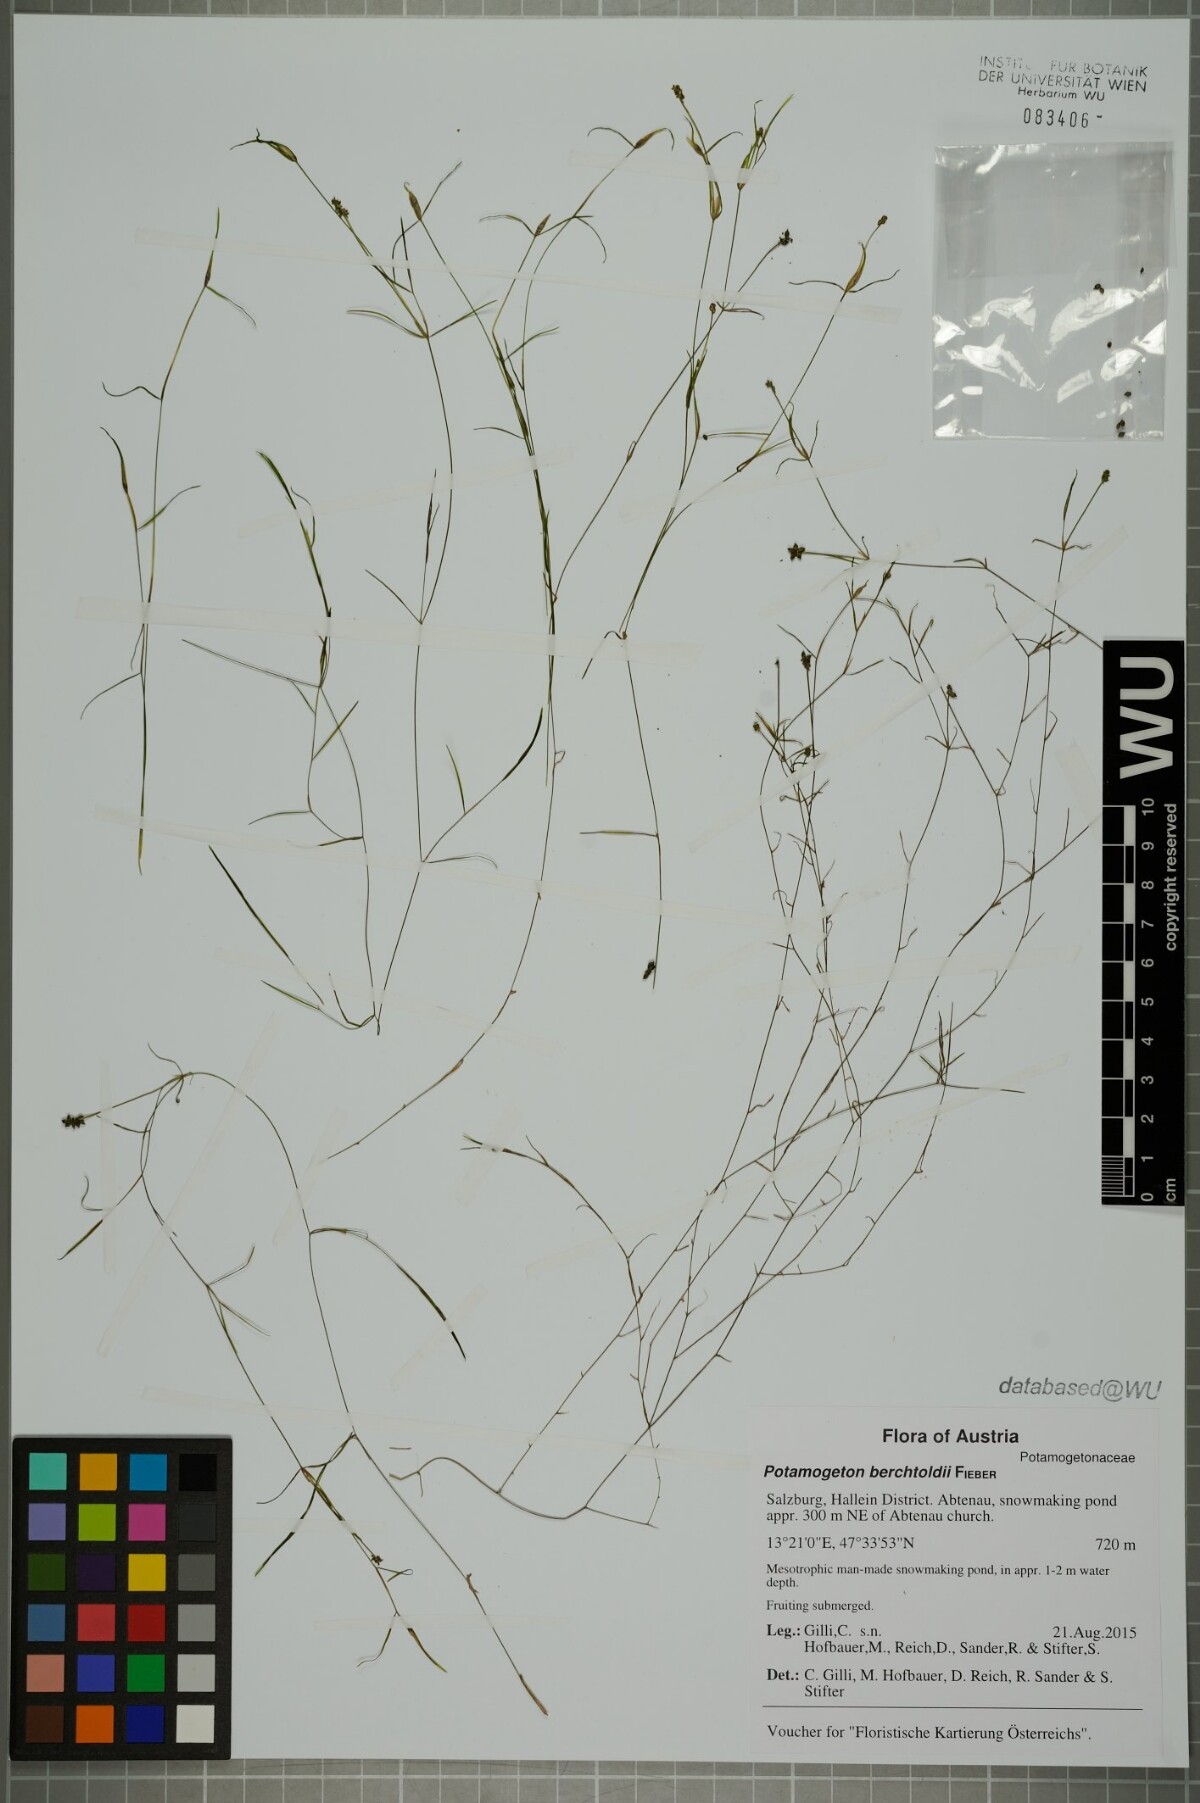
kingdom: Plantae
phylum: Tracheophyta
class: Liliopsida
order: Alismatales
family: Potamogetonaceae
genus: Potamogeton
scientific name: Potamogeton berchtoldii
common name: Small pondweed
